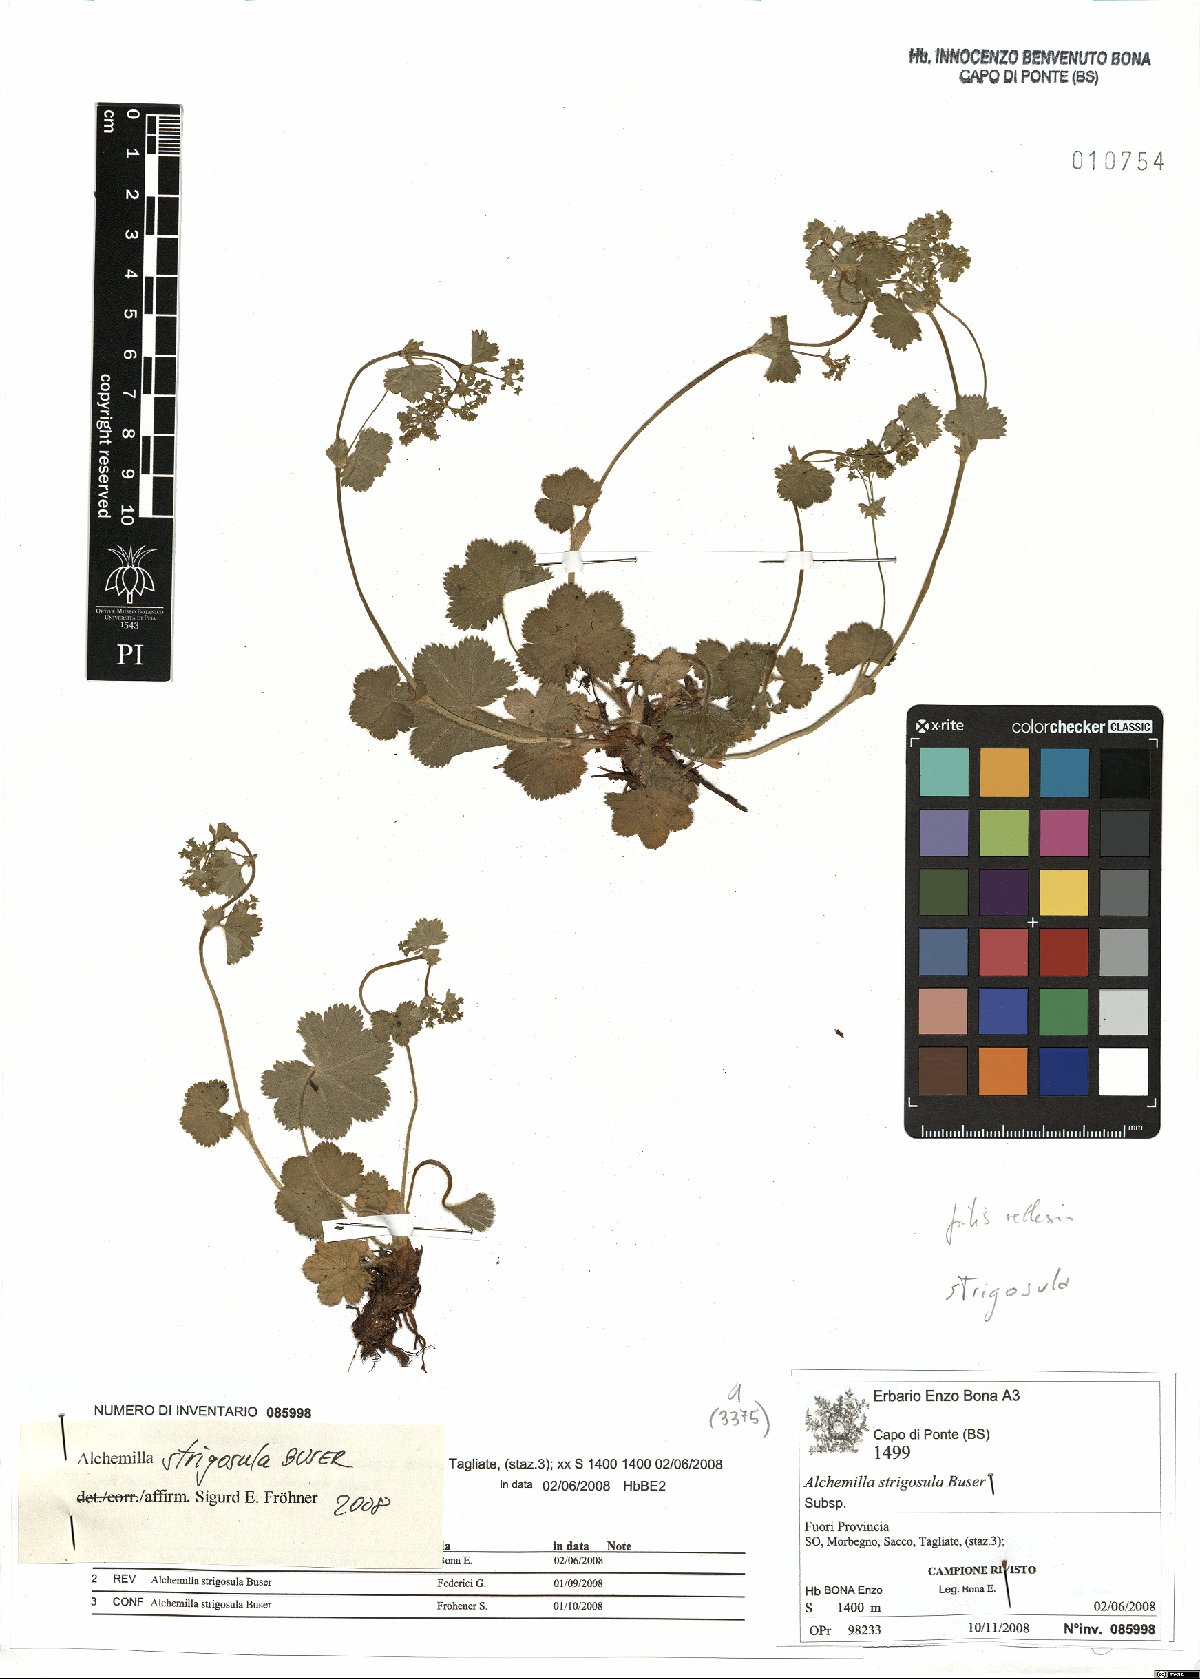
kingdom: Plantae
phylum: Tracheophyta
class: Magnoliopsida
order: Rosales
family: Rosaceae
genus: Alchemilla
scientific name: Alchemilla strigosula
